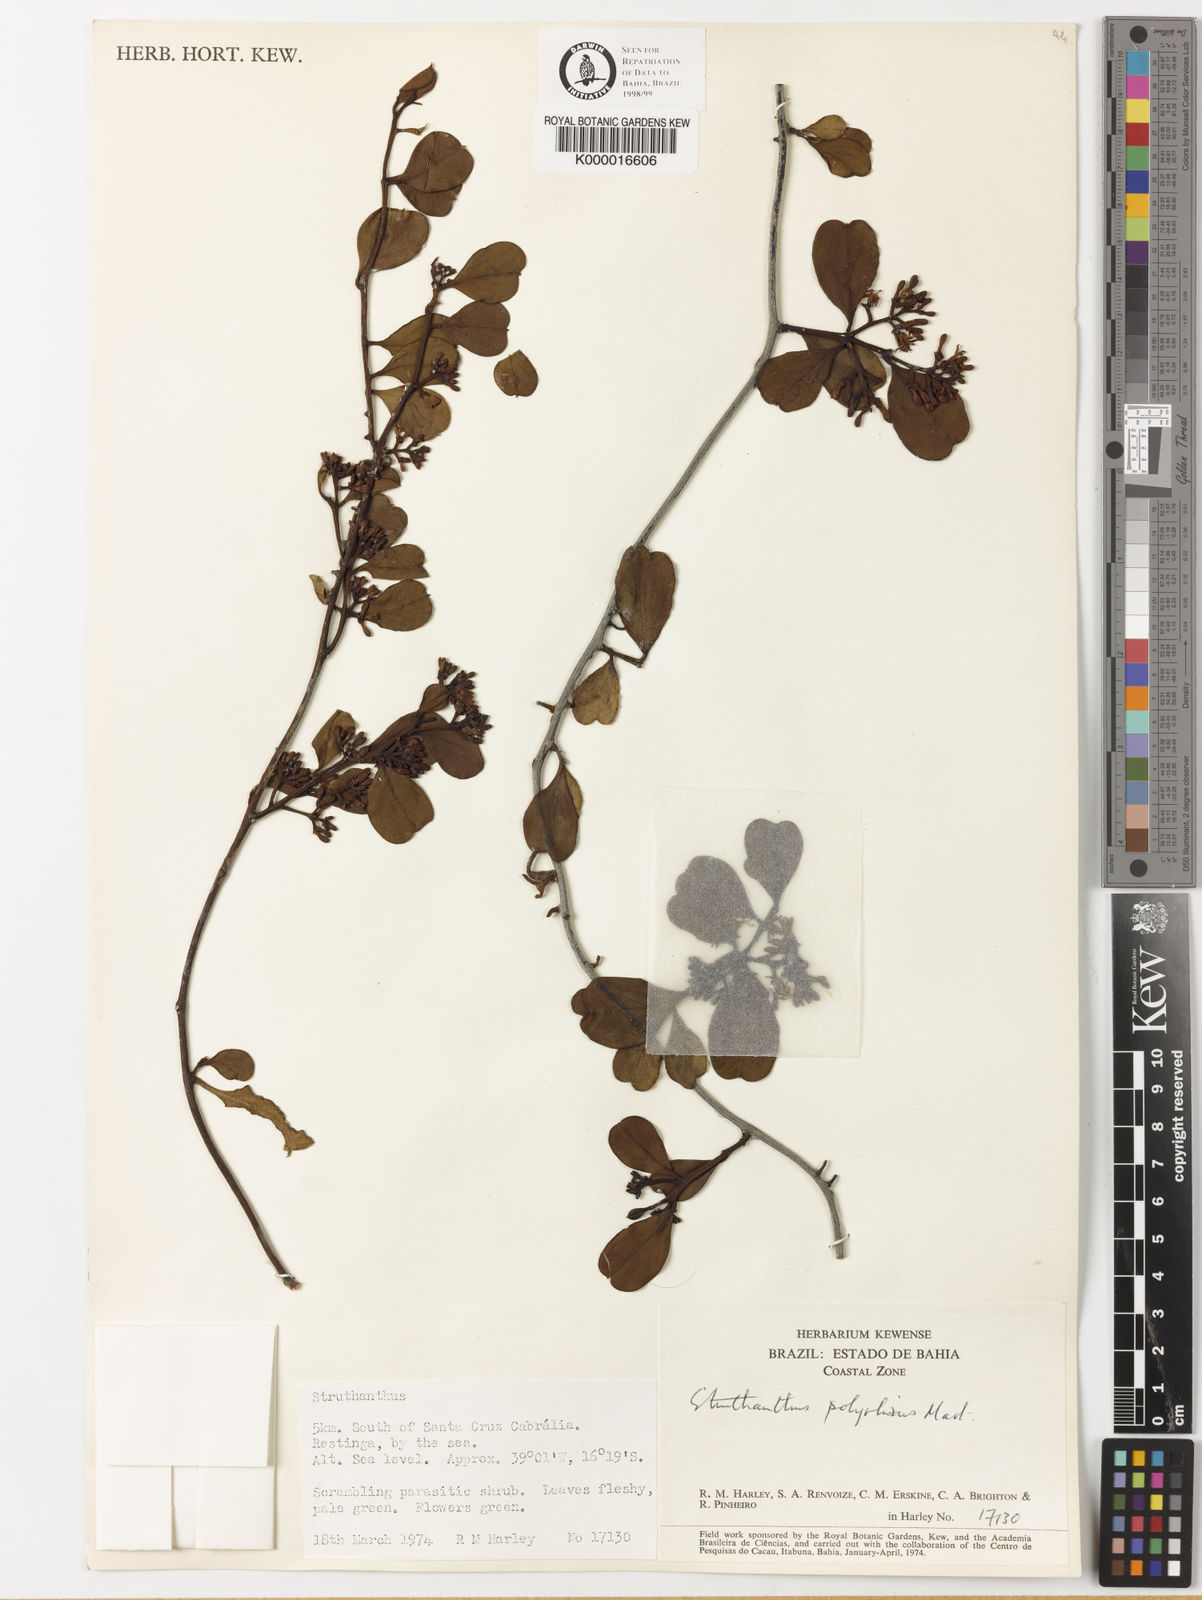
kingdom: Plantae
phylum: Tracheophyta
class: Magnoliopsida
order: Santalales
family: Loranthaceae
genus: Struthanthus
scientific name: Struthanthus retusus
